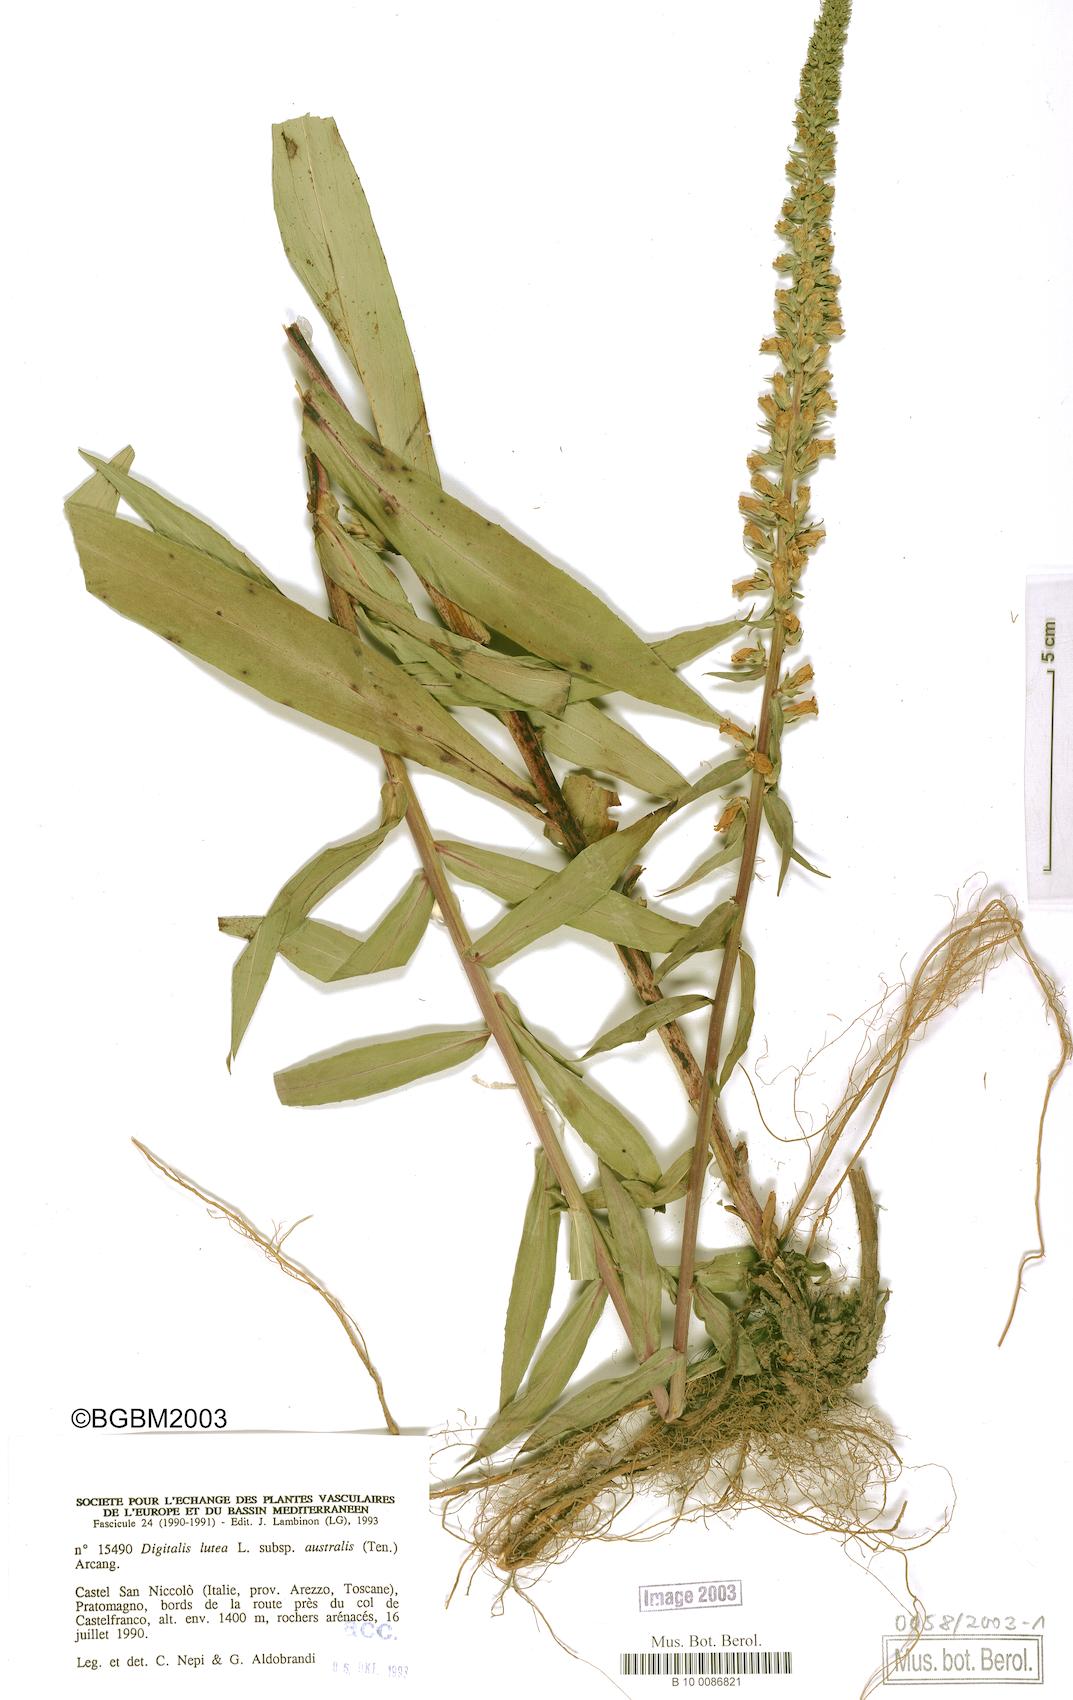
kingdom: Plantae
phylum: Tracheophyta
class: Magnoliopsida
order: Lamiales
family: Plantaginaceae
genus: Digitalis
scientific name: Digitalis lutea
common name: Straw foxglove
